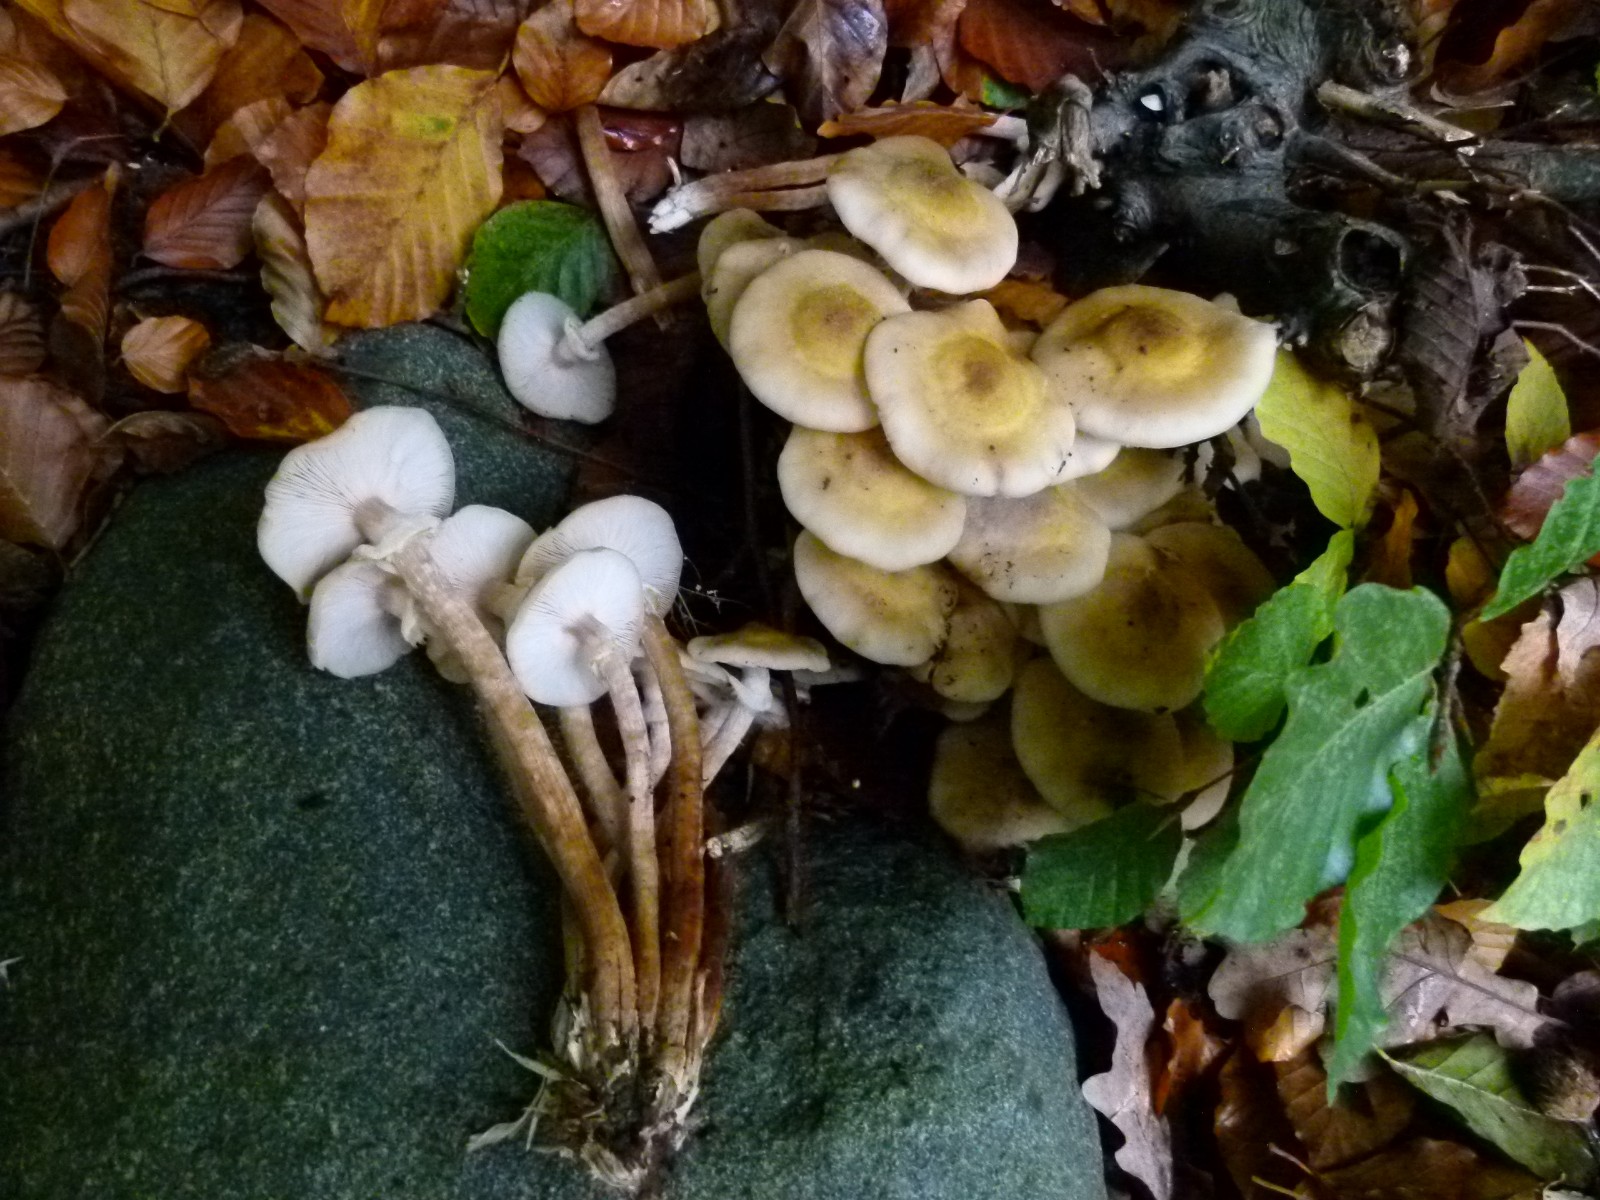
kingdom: Fungi
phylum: Basidiomycota
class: Agaricomycetes
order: Agaricales
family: Physalacriaceae
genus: Armillaria
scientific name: Armillaria mellea
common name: ægte honningsvamp
